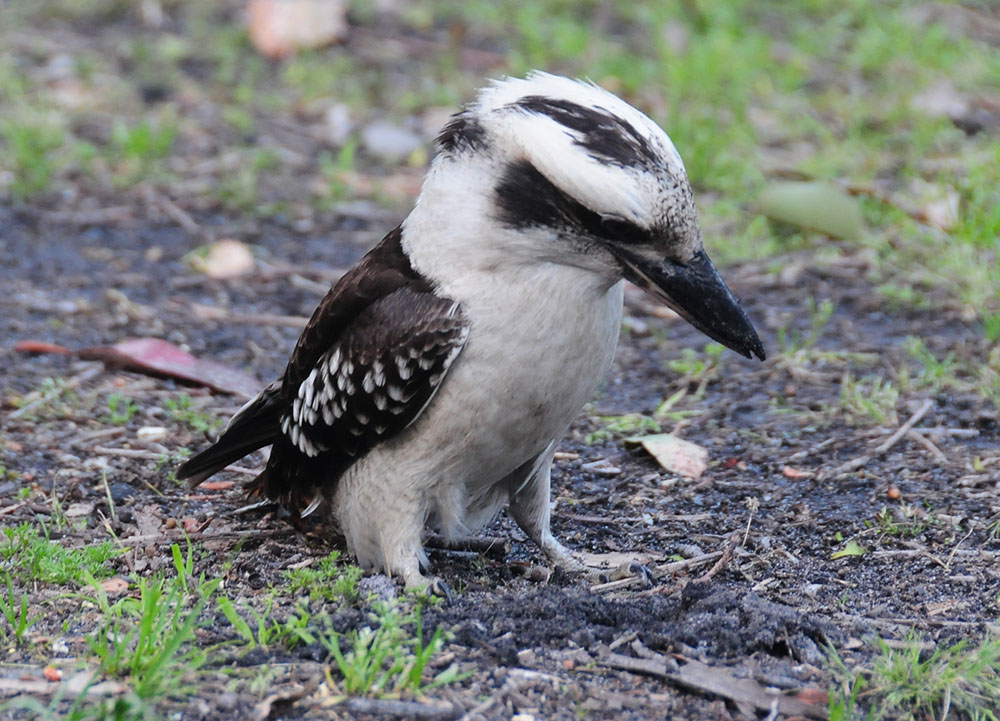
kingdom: Animalia
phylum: Chordata
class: Aves
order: Coraciiformes
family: Alcedinidae
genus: Dacelo
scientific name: Dacelo novaeguineae
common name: Laughing kookaburra
